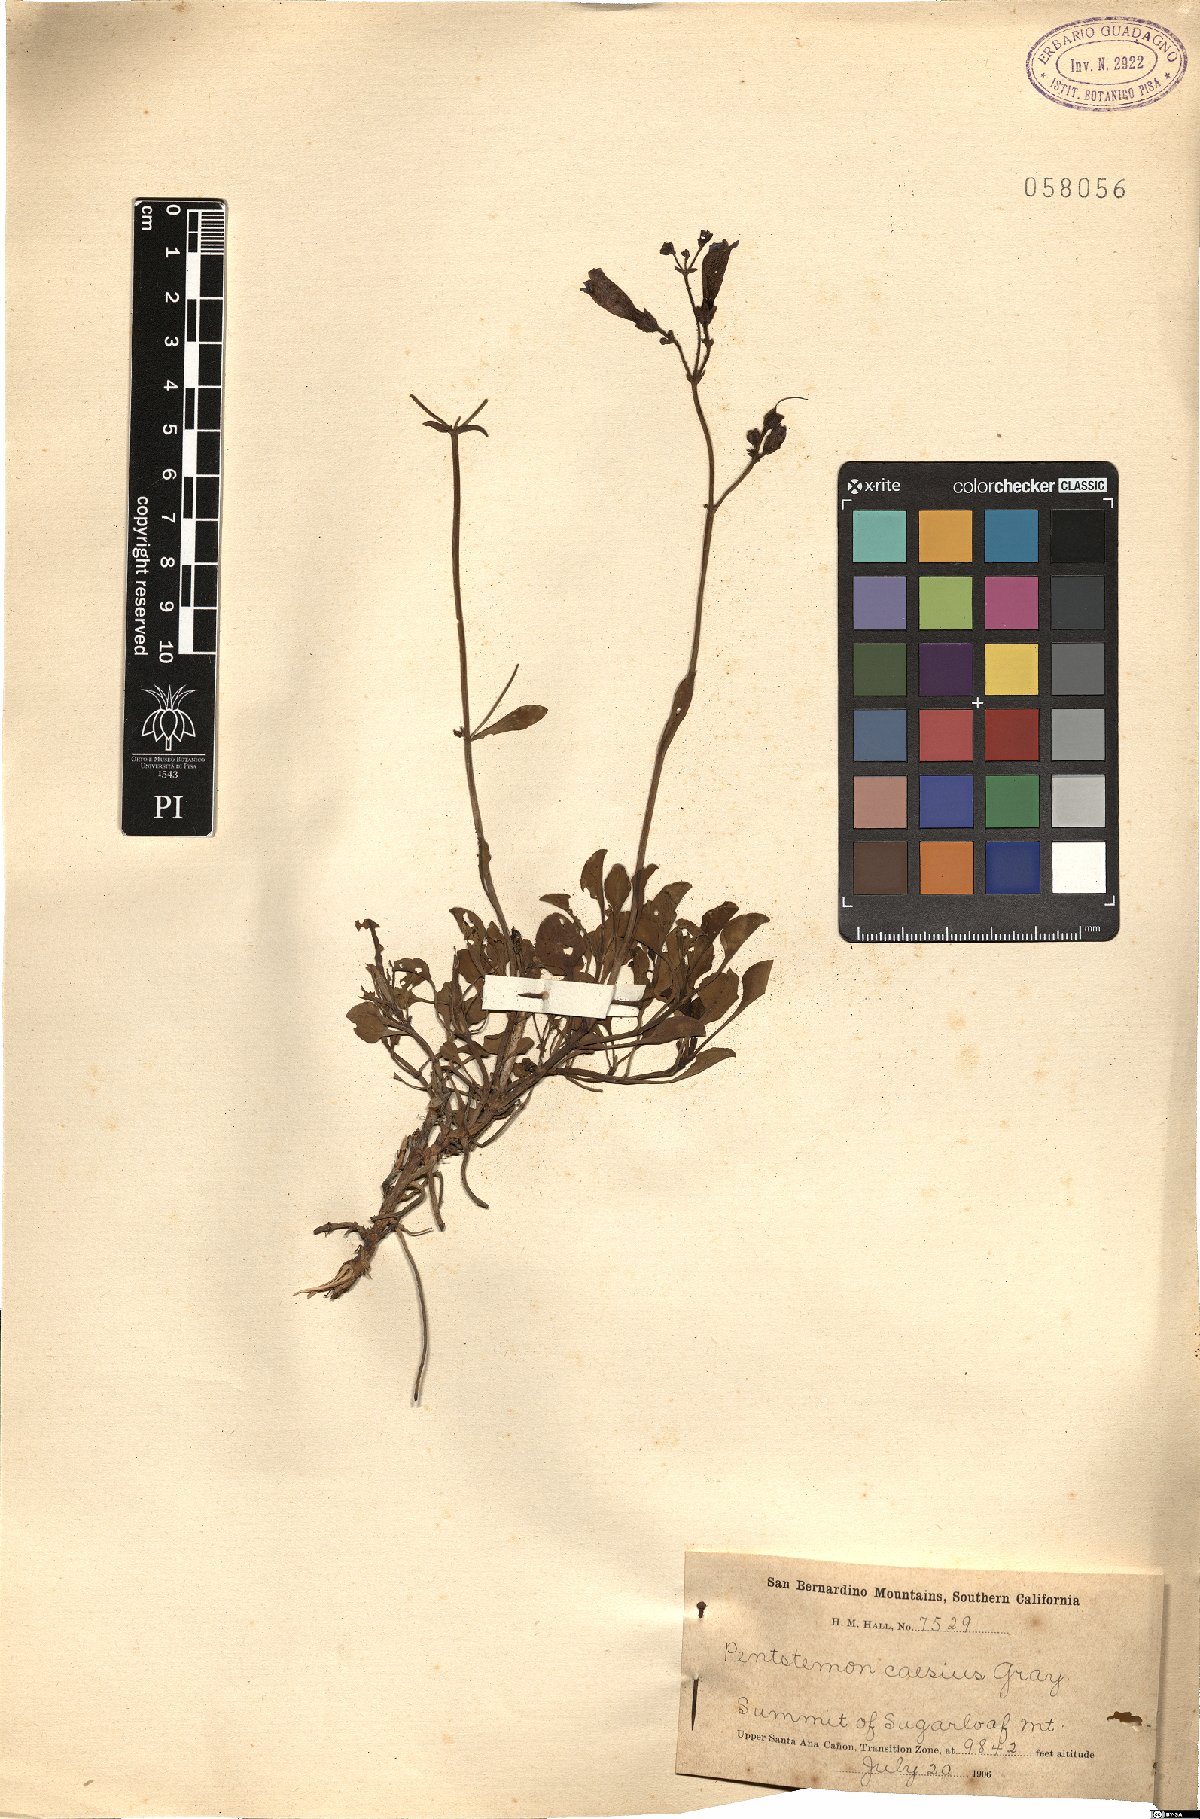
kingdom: Plantae
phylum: Tracheophyta
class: Magnoliopsida
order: Lamiales
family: Plantaginaceae
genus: Penstemon
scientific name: Penstemon caesius
